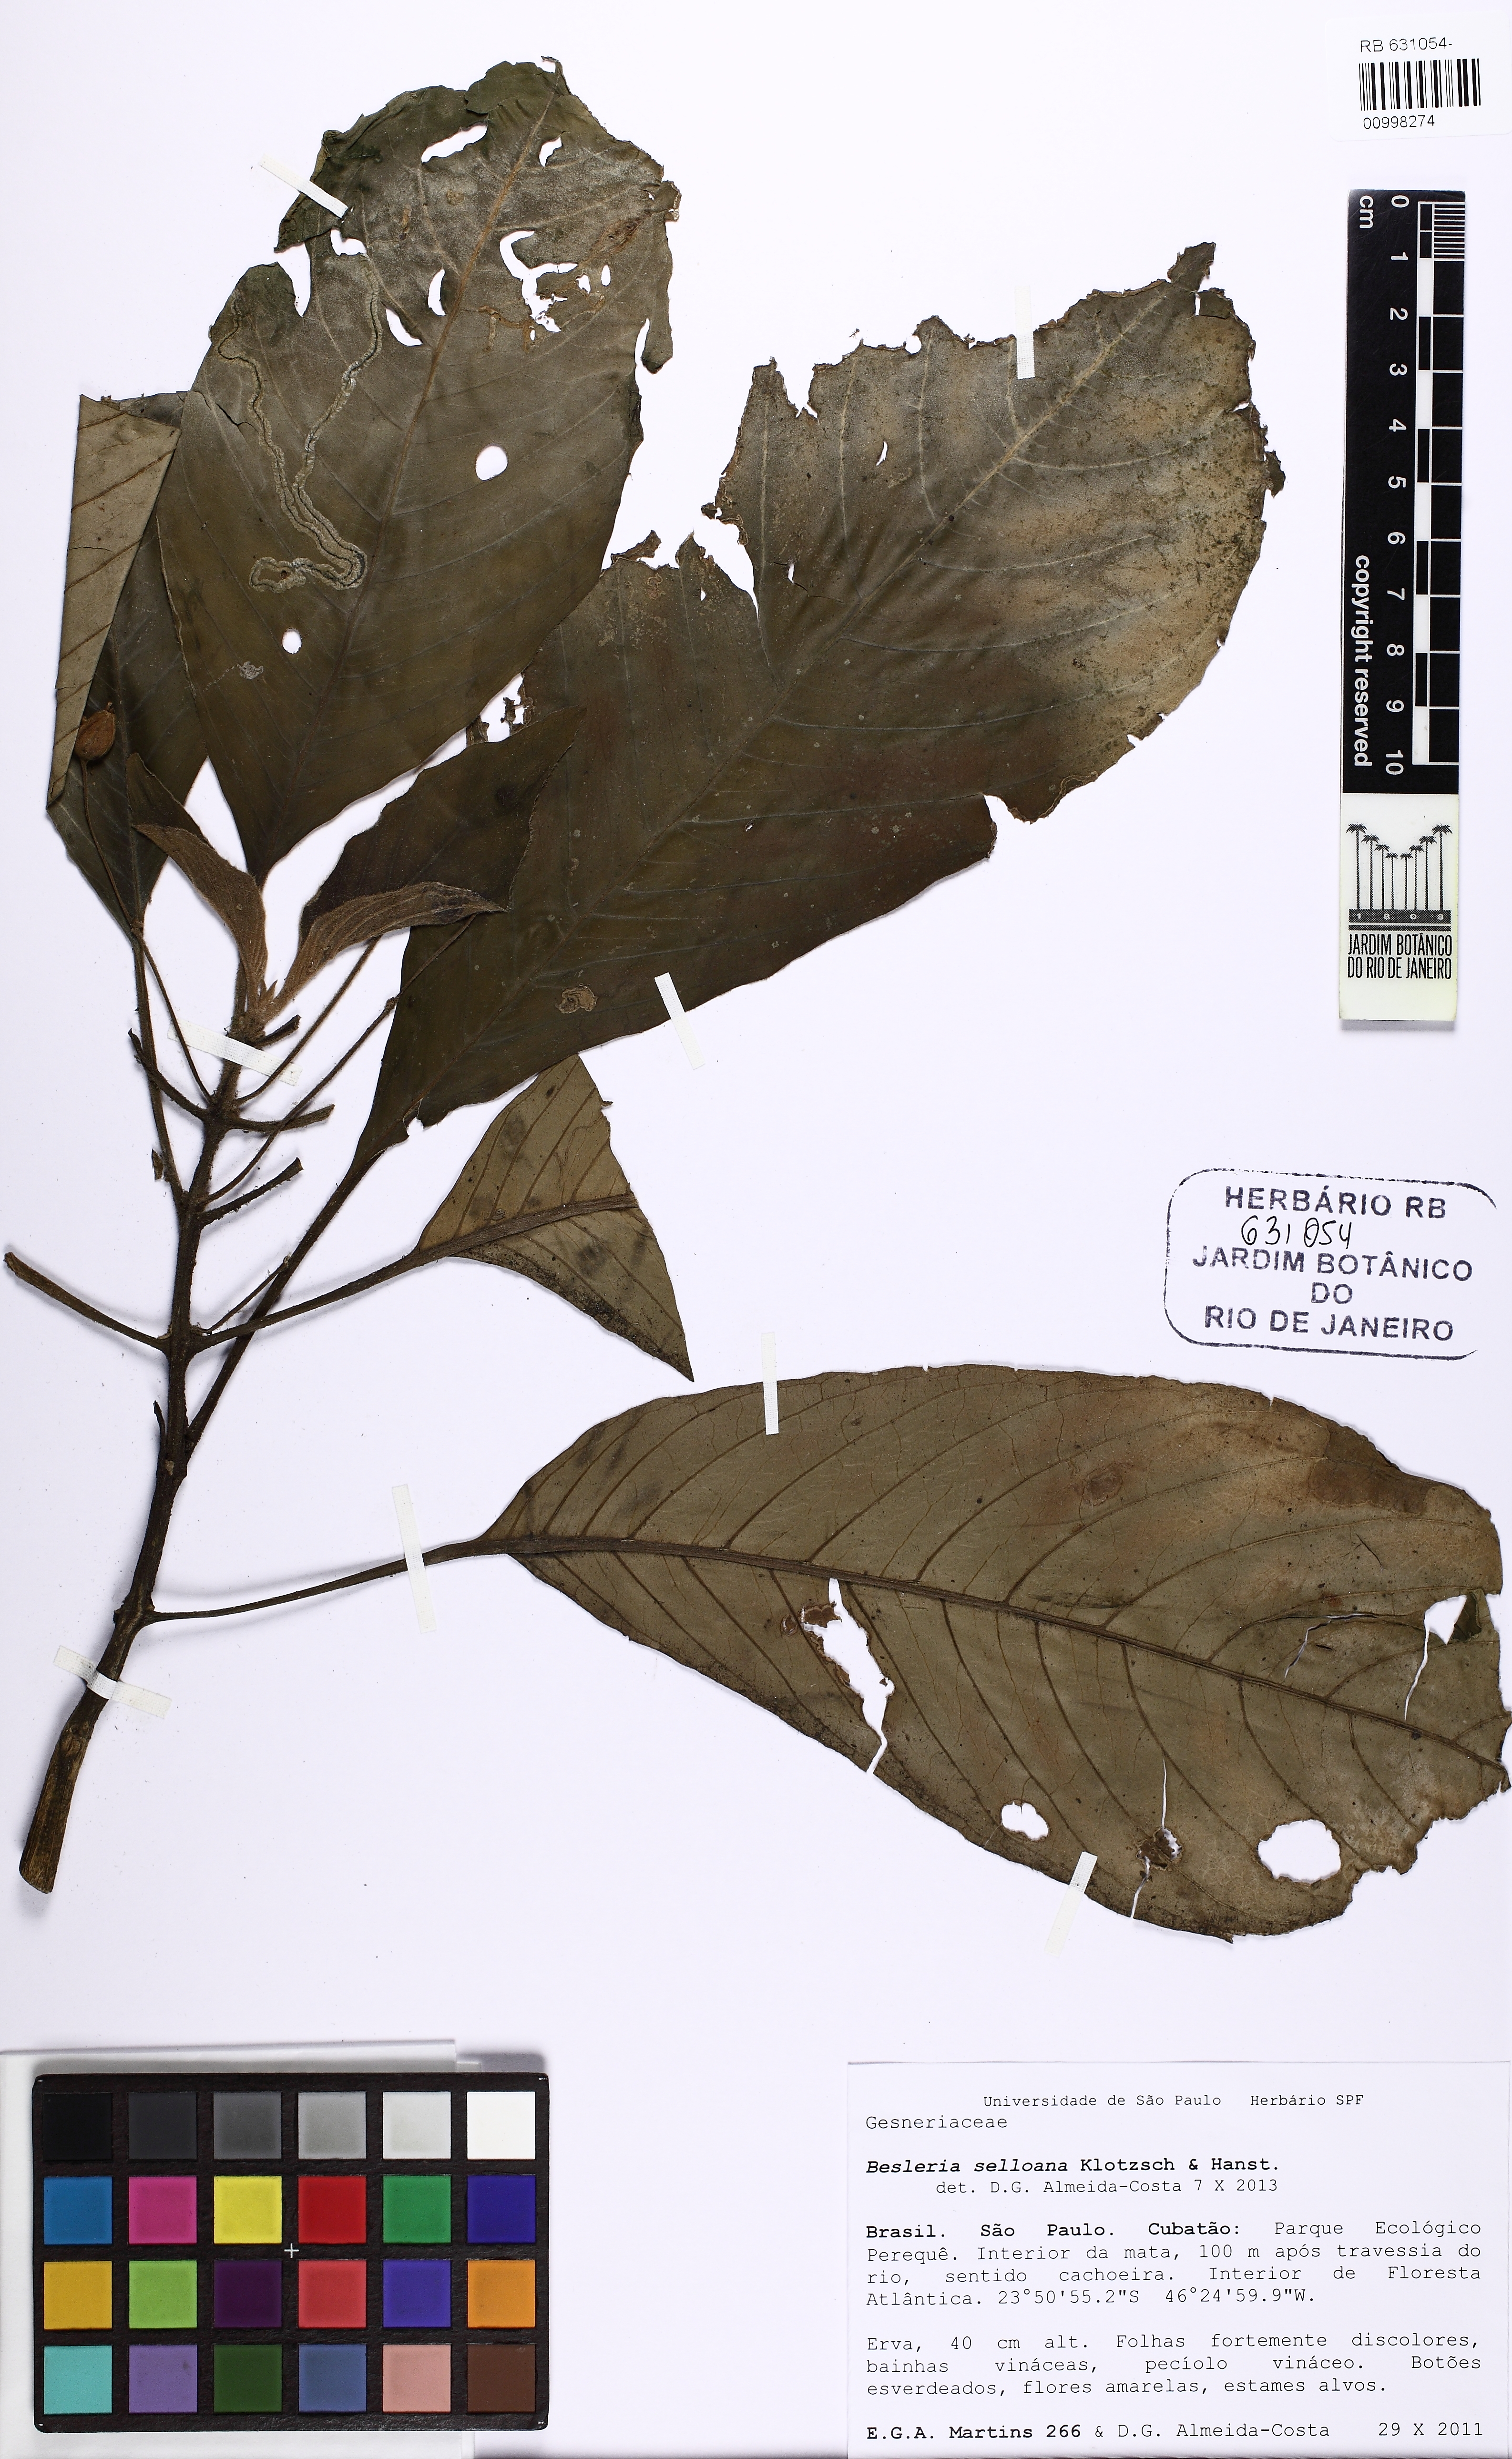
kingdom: Plantae
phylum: Tracheophyta
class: Magnoliopsida
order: Lamiales
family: Gesneriaceae
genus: Besleria
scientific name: Besleria selloana
